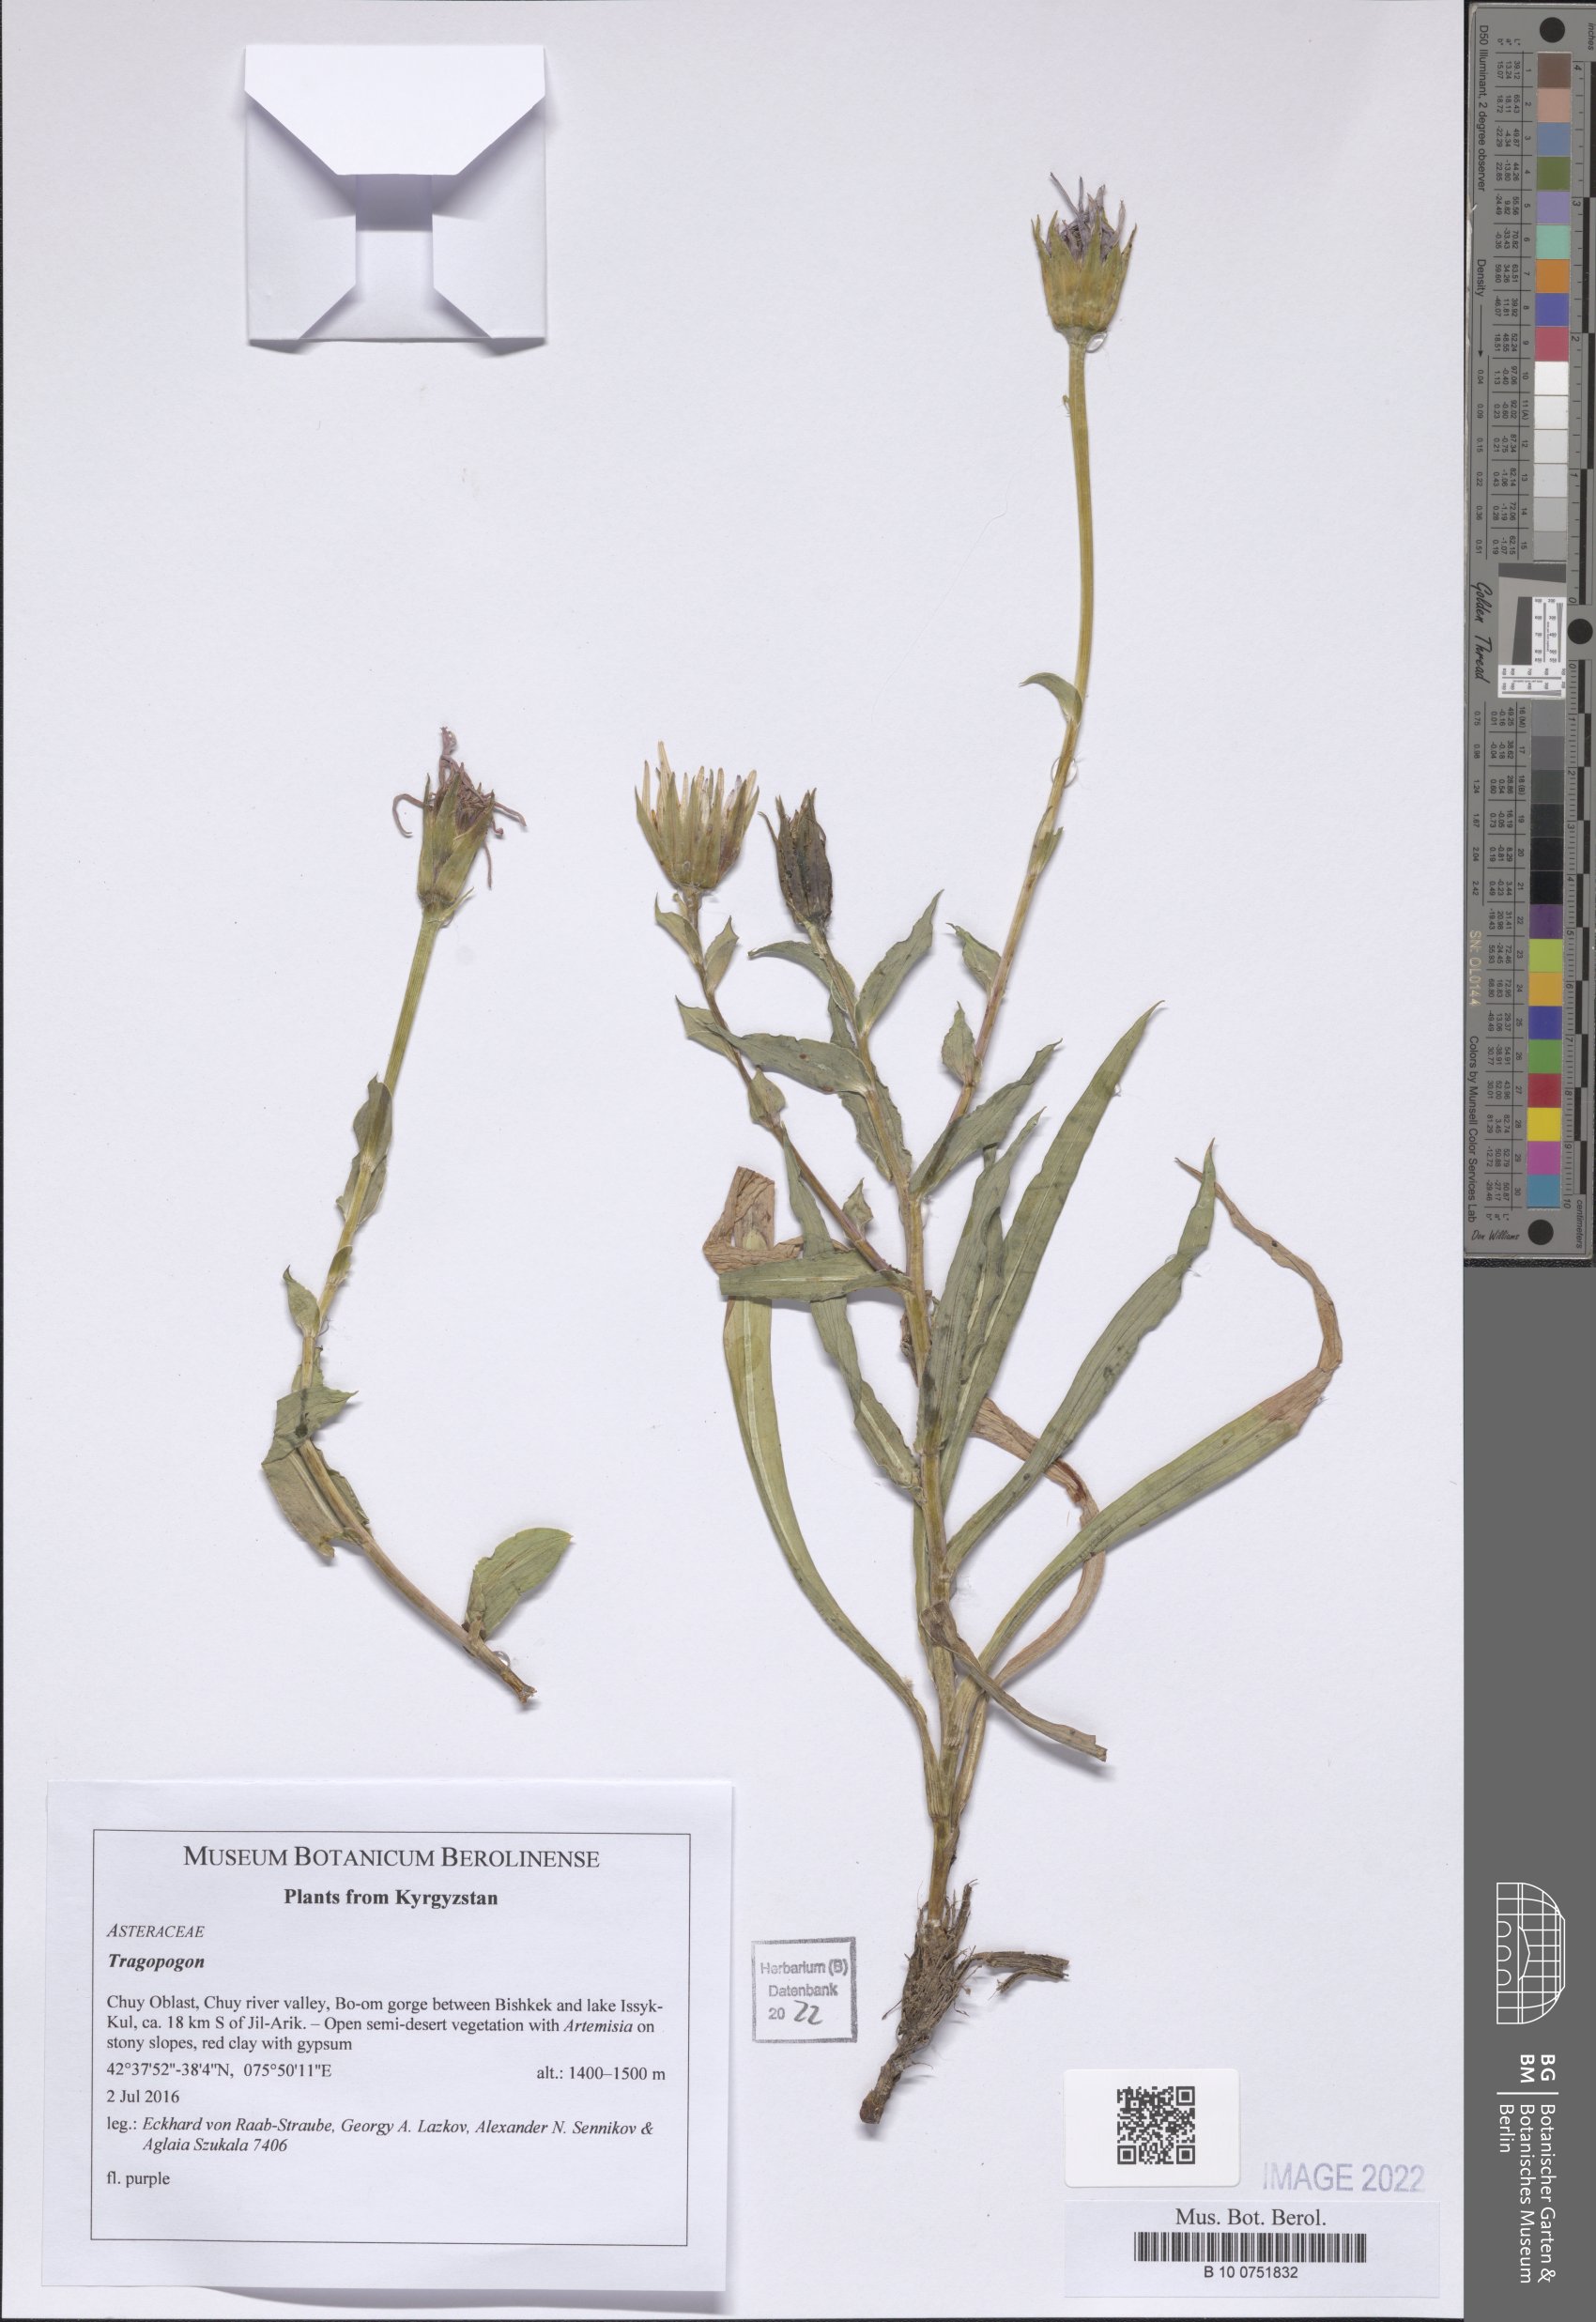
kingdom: Plantae
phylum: Tracheophyta
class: Magnoliopsida
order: Asterales
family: Asteraceae
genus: Tragopogon
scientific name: Tragopogon
